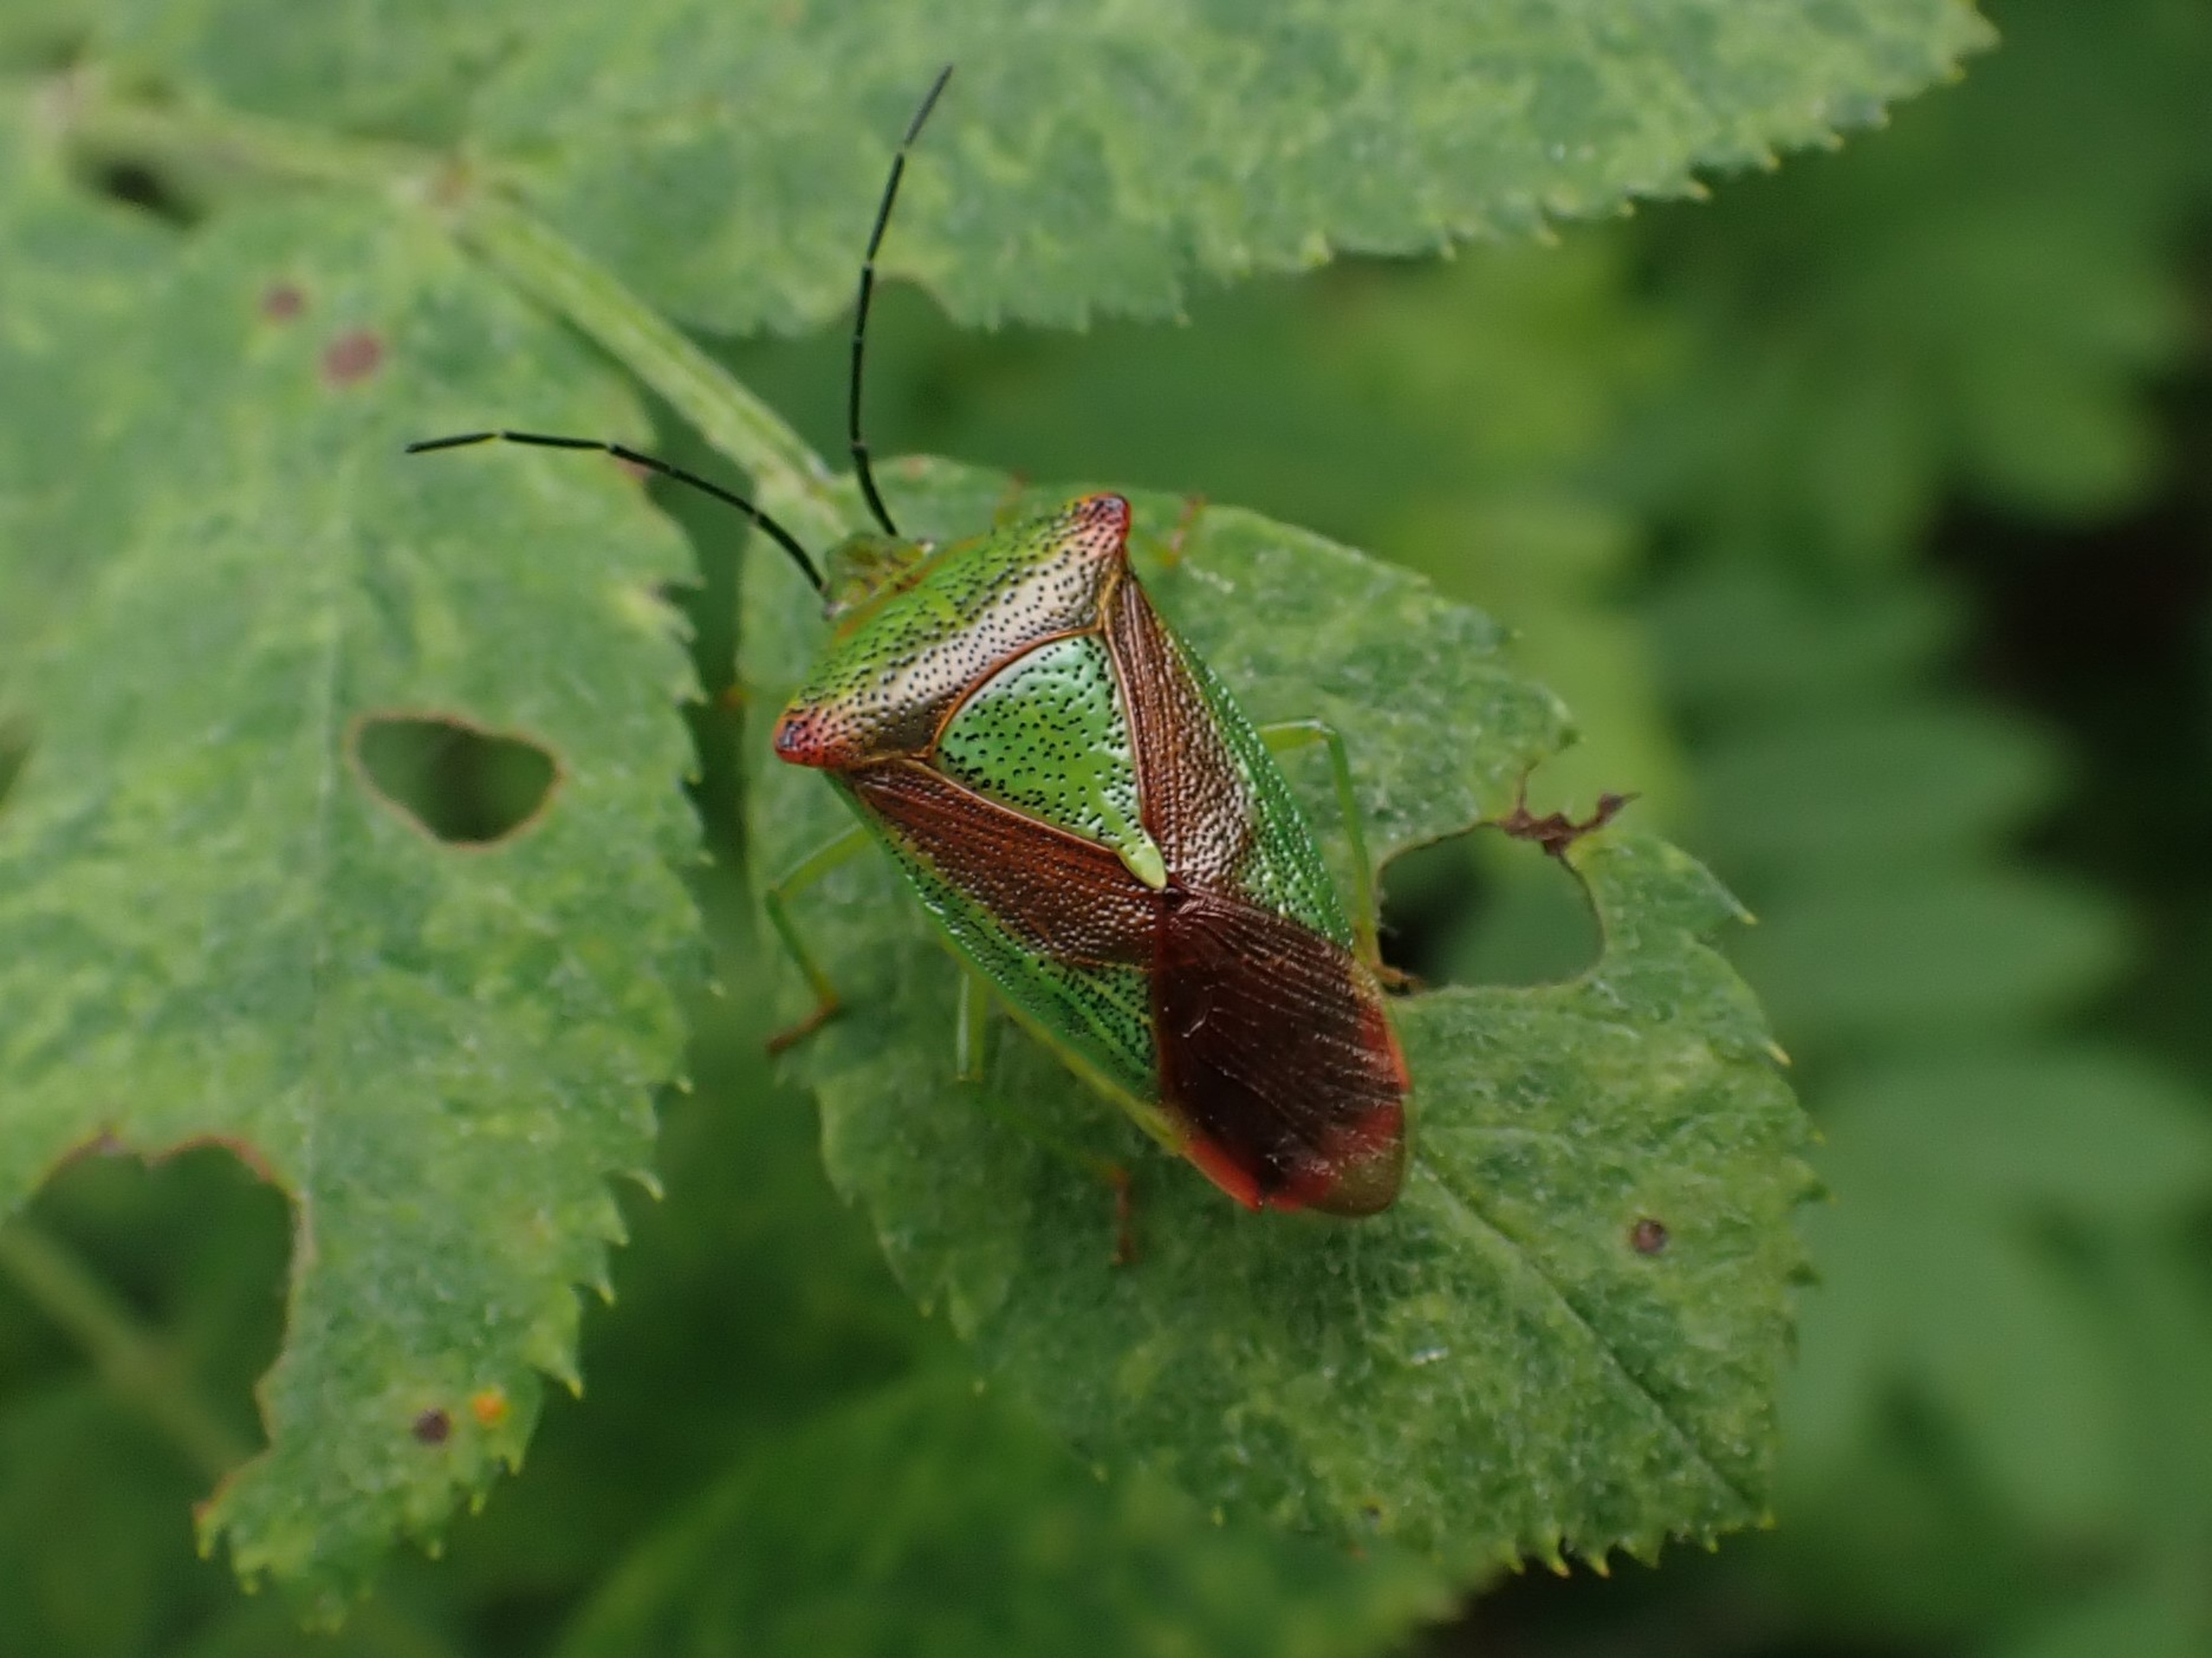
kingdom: Animalia
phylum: Arthropoda
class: Insecta
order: Hemiptera
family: Acanthosomatidae
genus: Acanthosoma
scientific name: Acanthosoma haemorrhoidale
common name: Stor løvtæge
